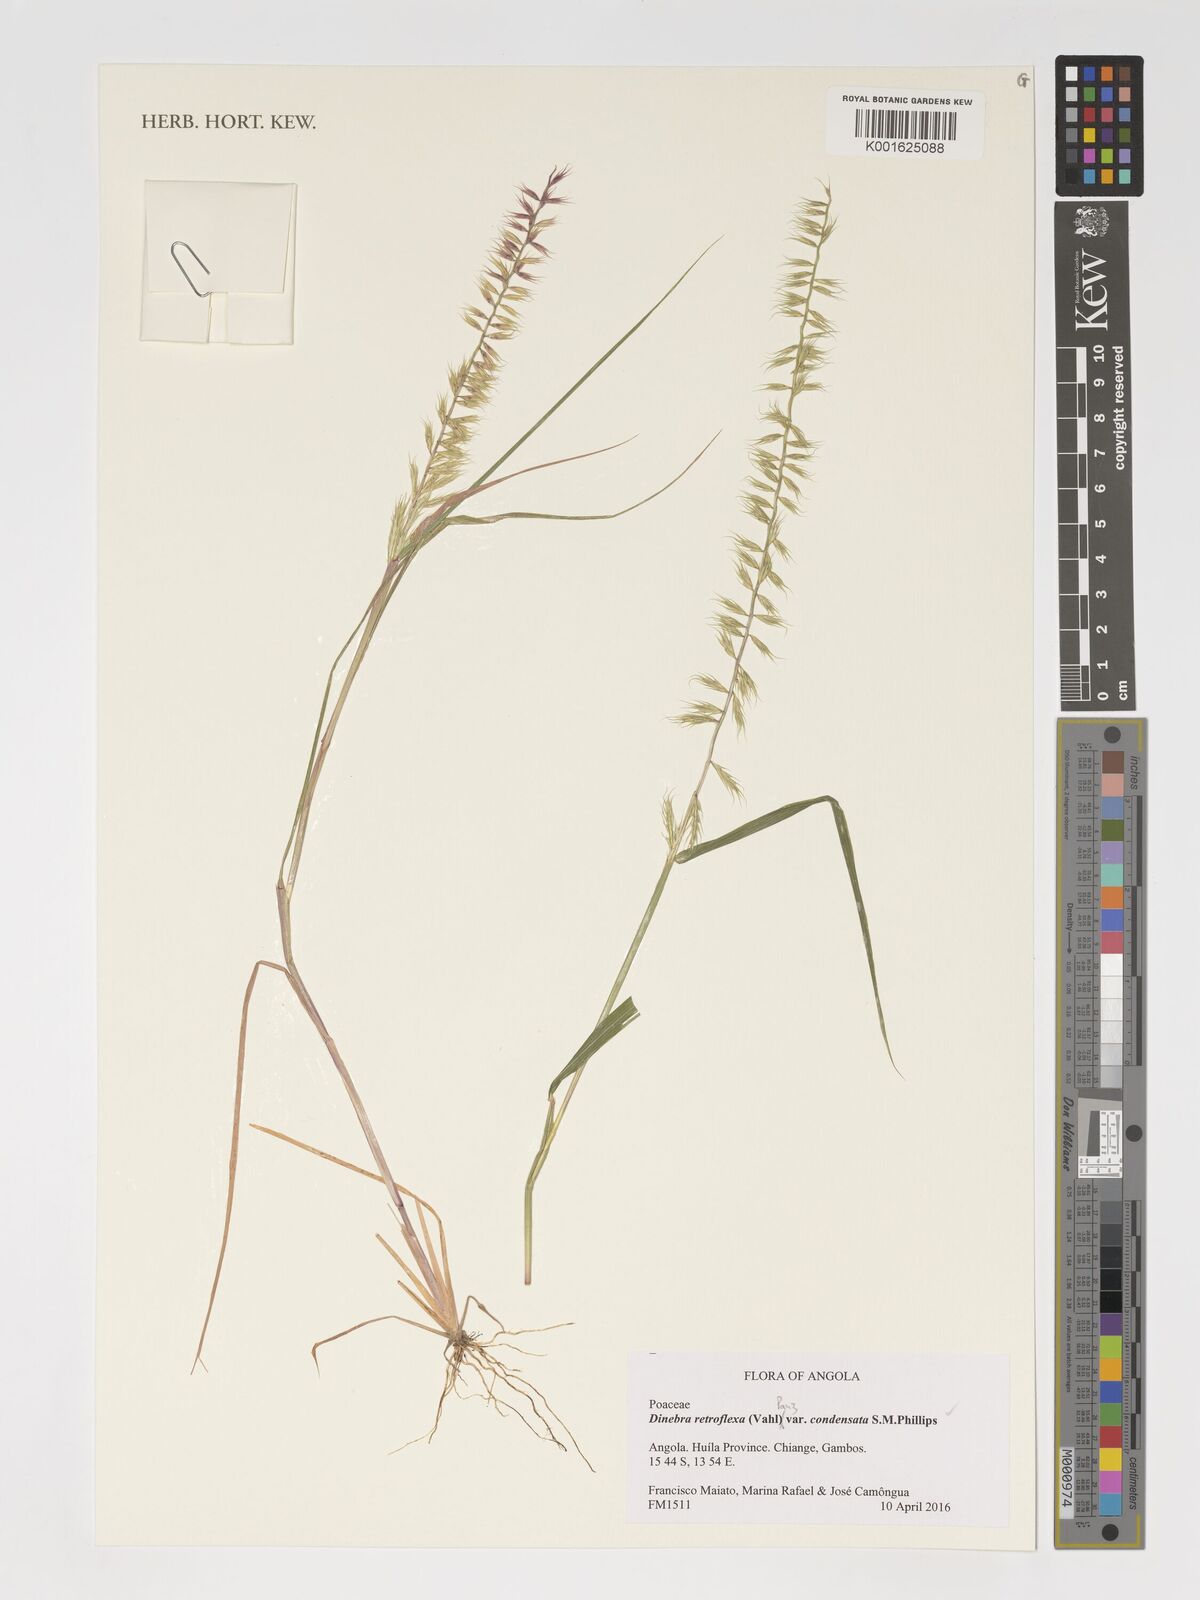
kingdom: Plantae
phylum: Tracheophyta
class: Liliopsida
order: Poales
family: Poaceae
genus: Dinebra
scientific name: Dinebra retroflexa
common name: Viper grass
